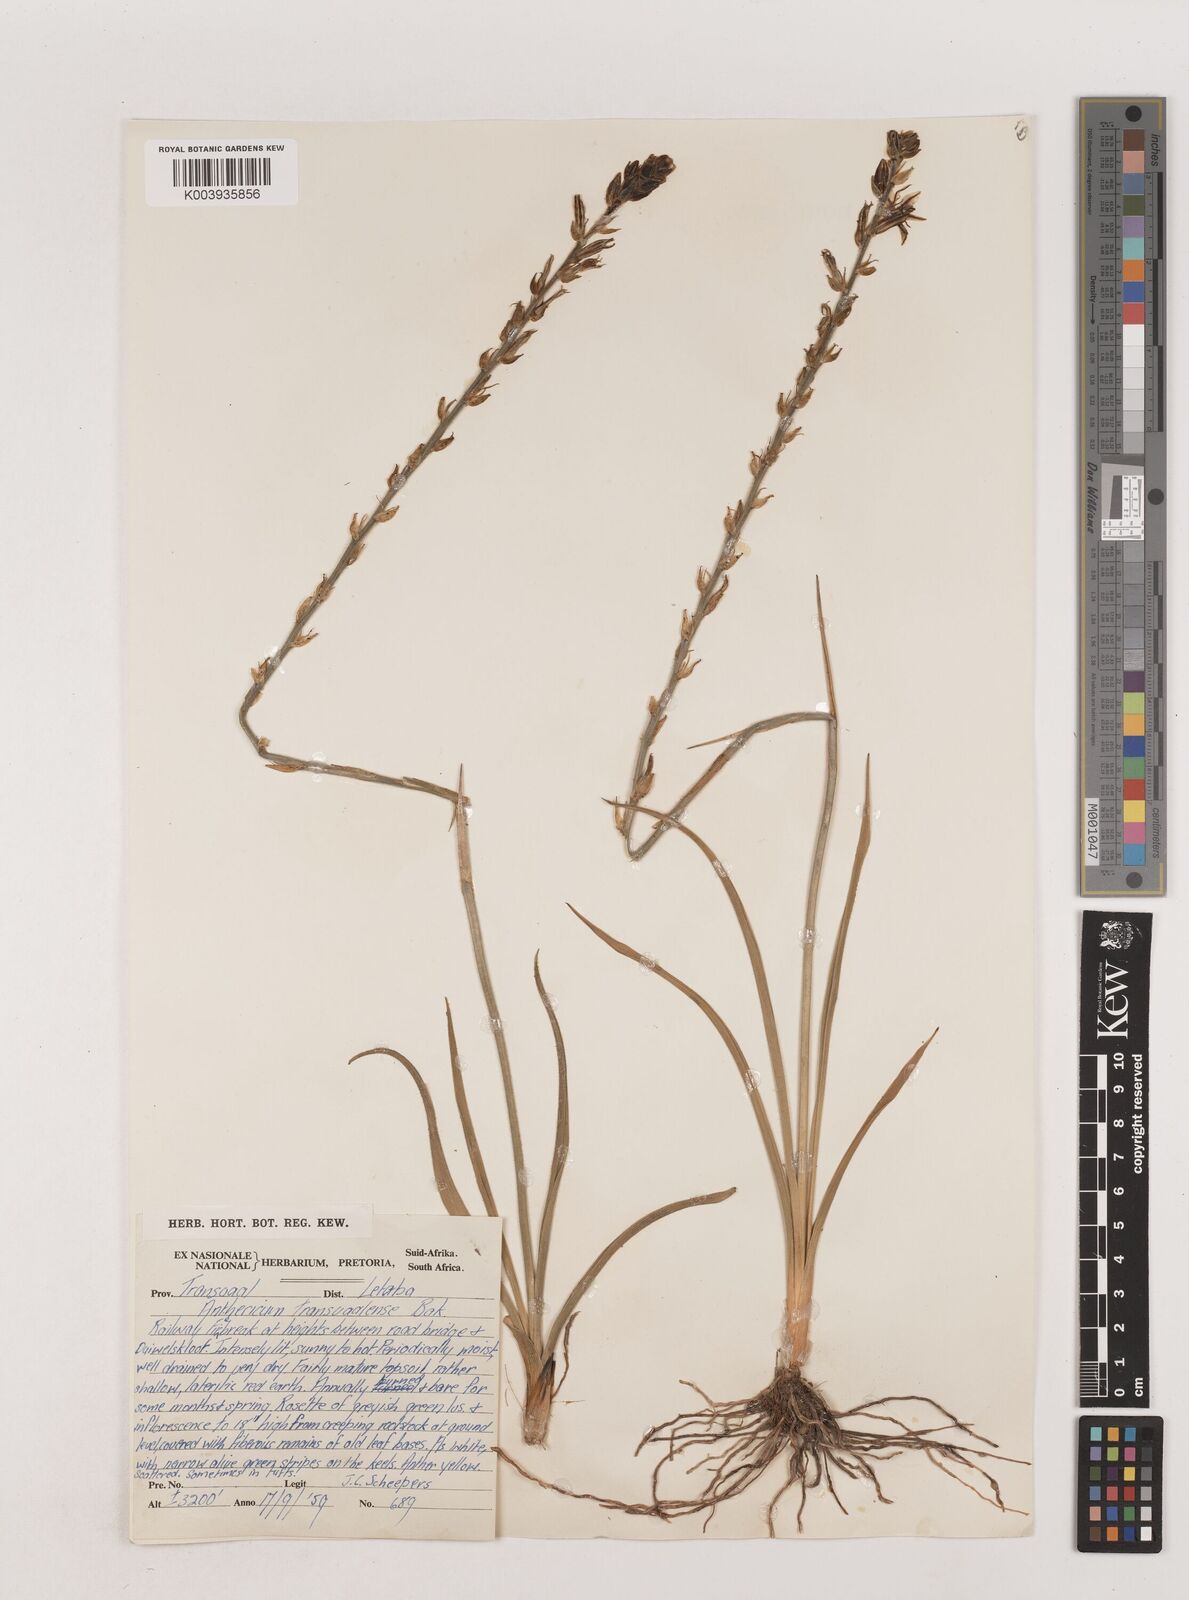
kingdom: Plantae
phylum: Tracheophyta
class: Liliopsida
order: Asparagales
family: Asparagaceae
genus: Chlorophytum
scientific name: Chlorophytum transvaalense
